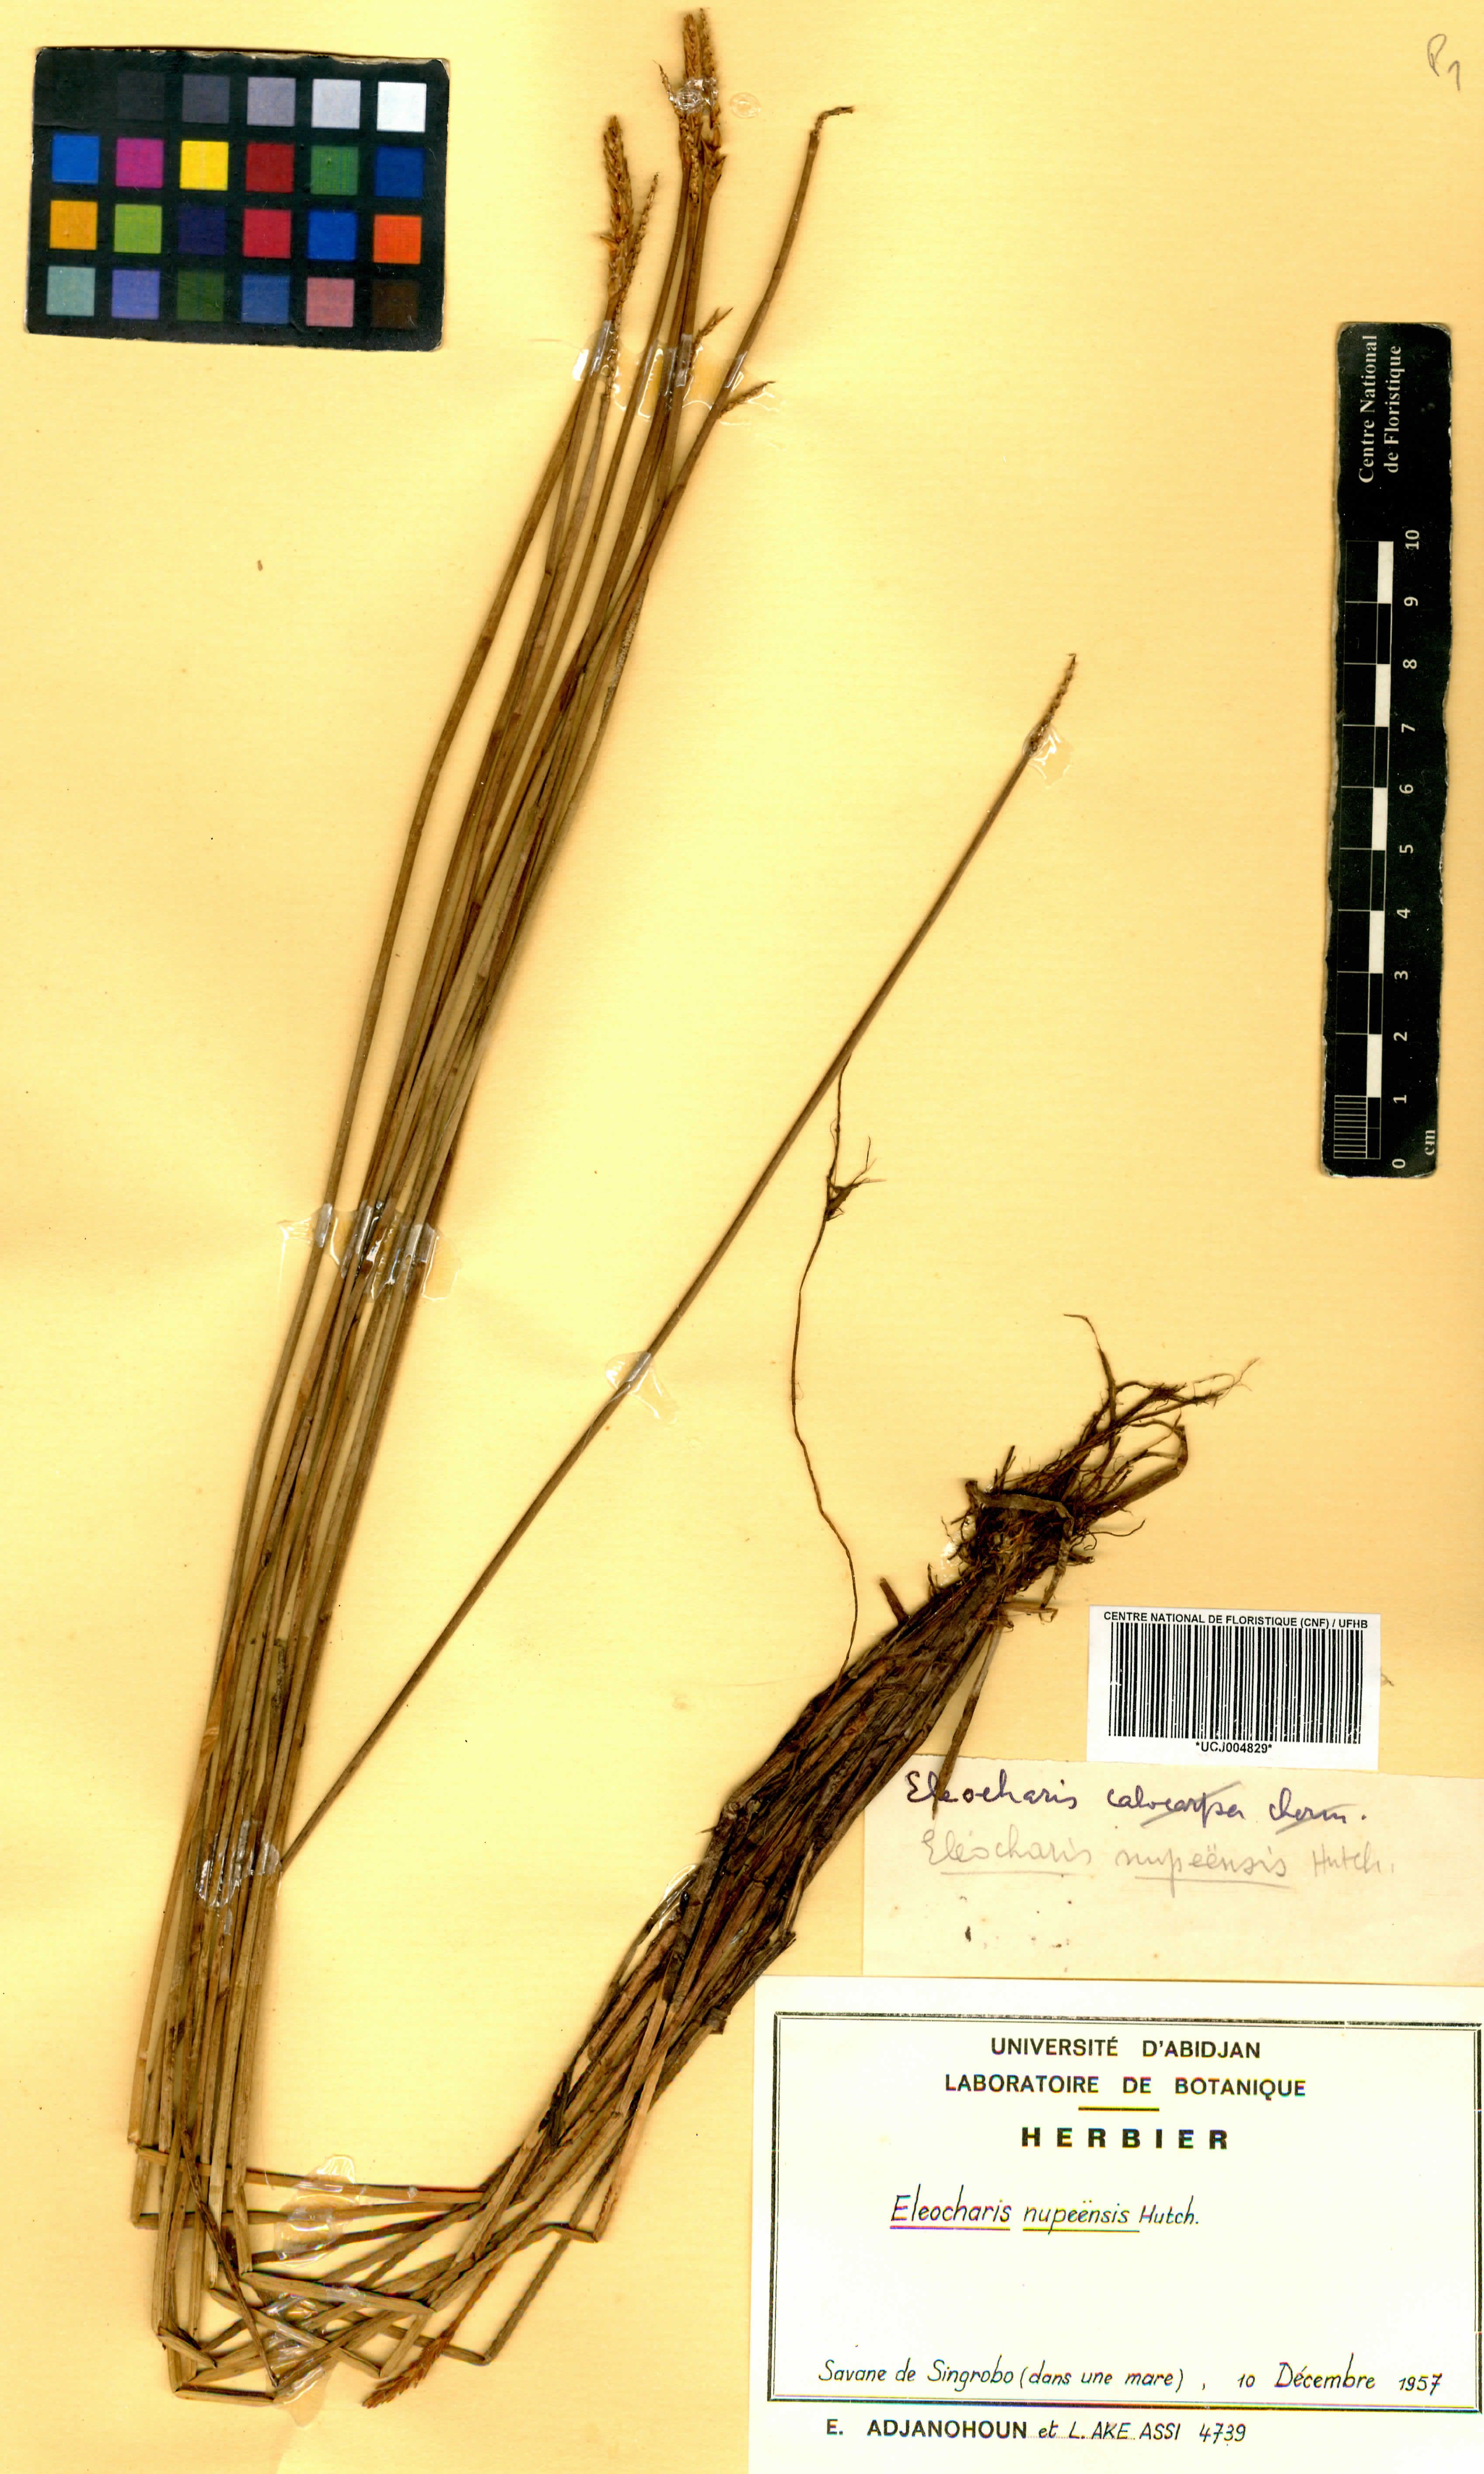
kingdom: Plantae
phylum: Tracheophyta
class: Liliopsida
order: Poales
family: Cyperaceae
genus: Eleocharis
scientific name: Eleocharis nupeensis
